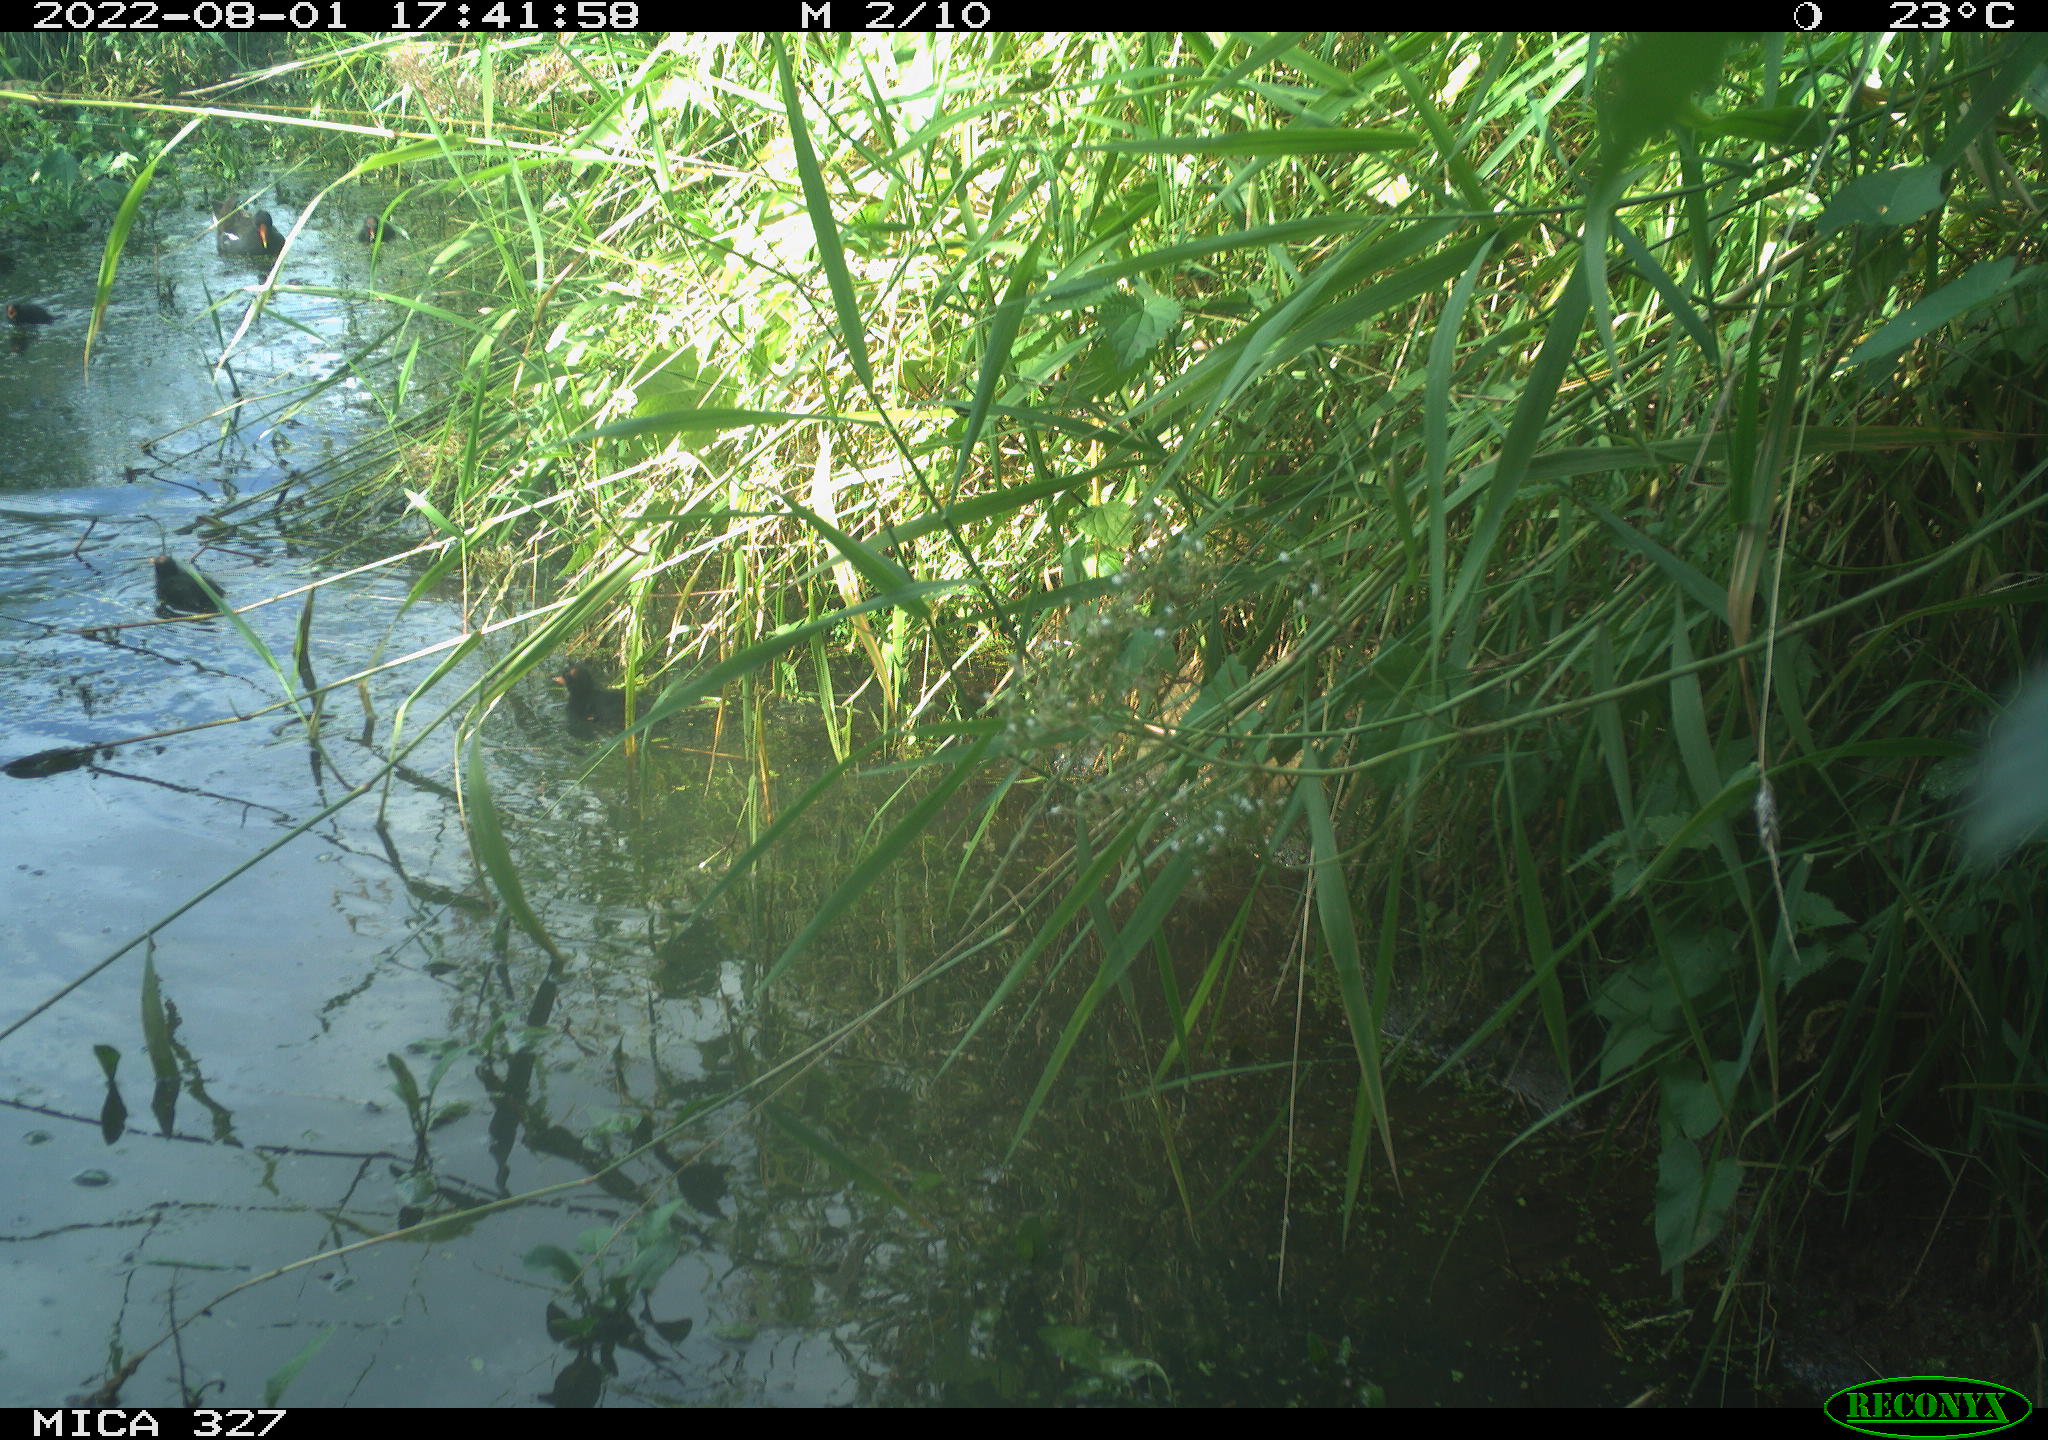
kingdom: Animalia
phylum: Chordata
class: Aves
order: Gruiformes
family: Rallidae
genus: Gallinula
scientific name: Gallinula chloropus
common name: Common moorhen
